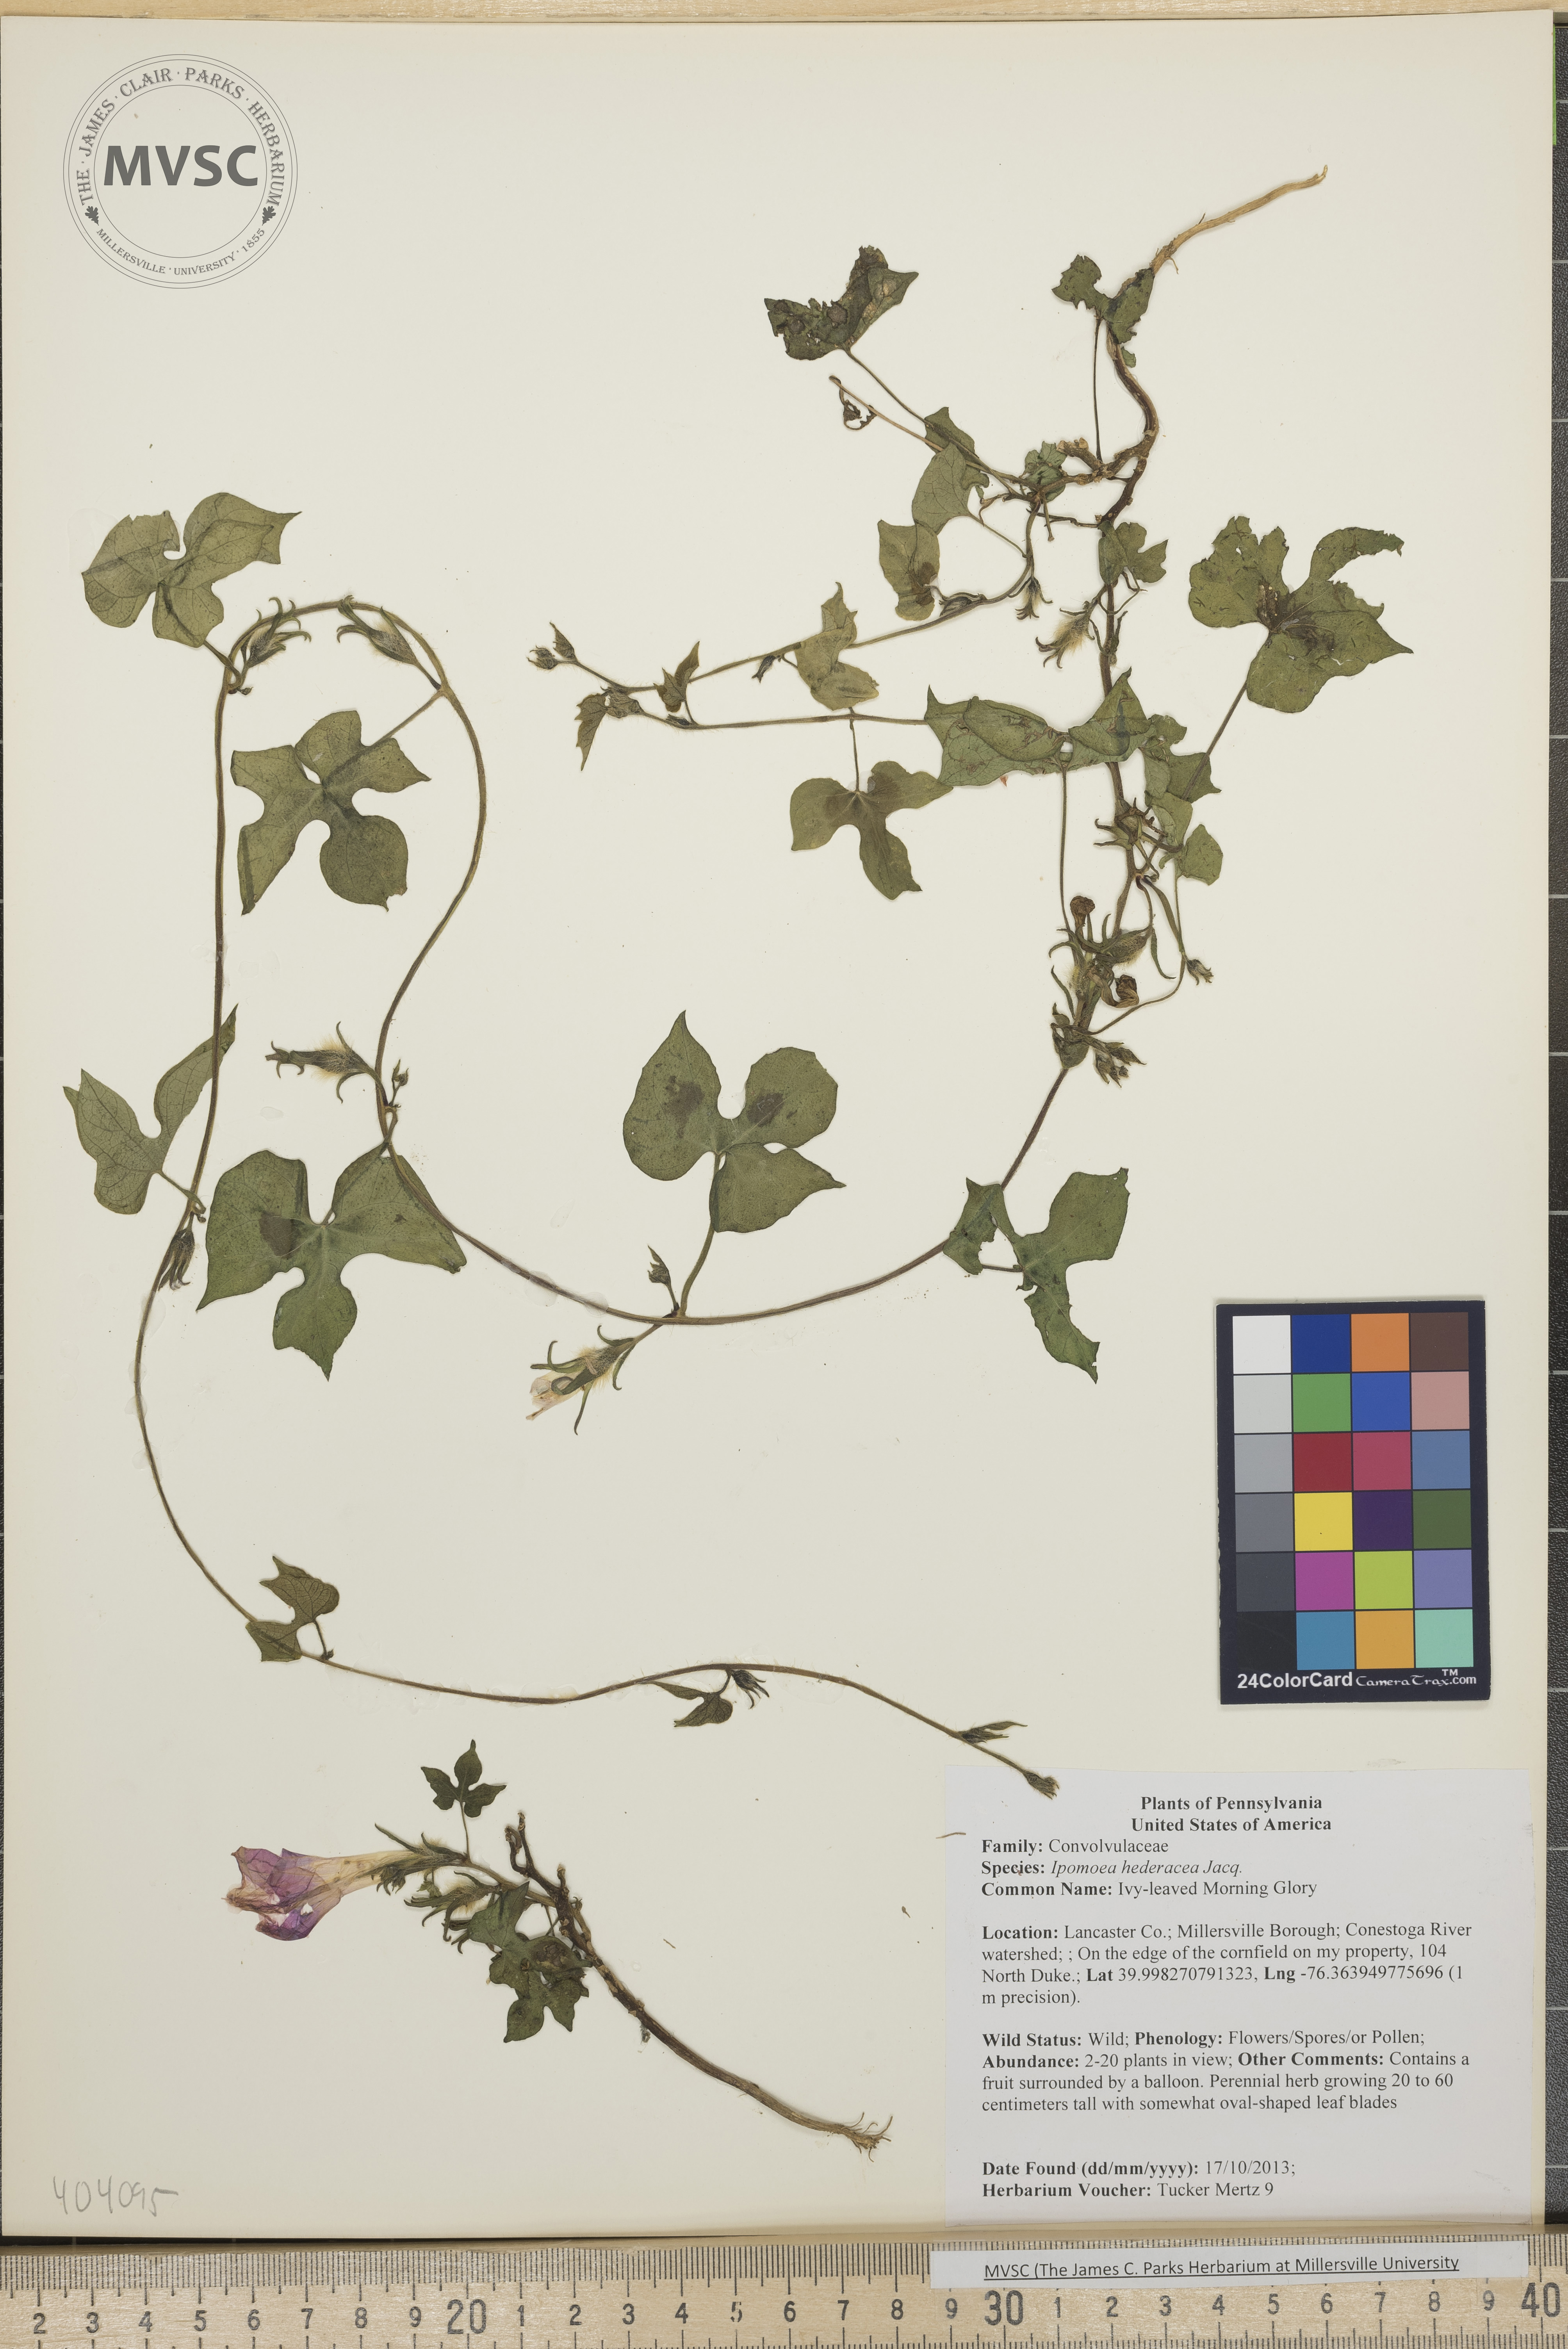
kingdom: Plantae
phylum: Tracheophyta
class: Magnoliopsida
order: Solanales
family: Convolvulaceae
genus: Ipomoea
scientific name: Ipomoea hederacea
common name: Ivy-leaved Morning Glory
